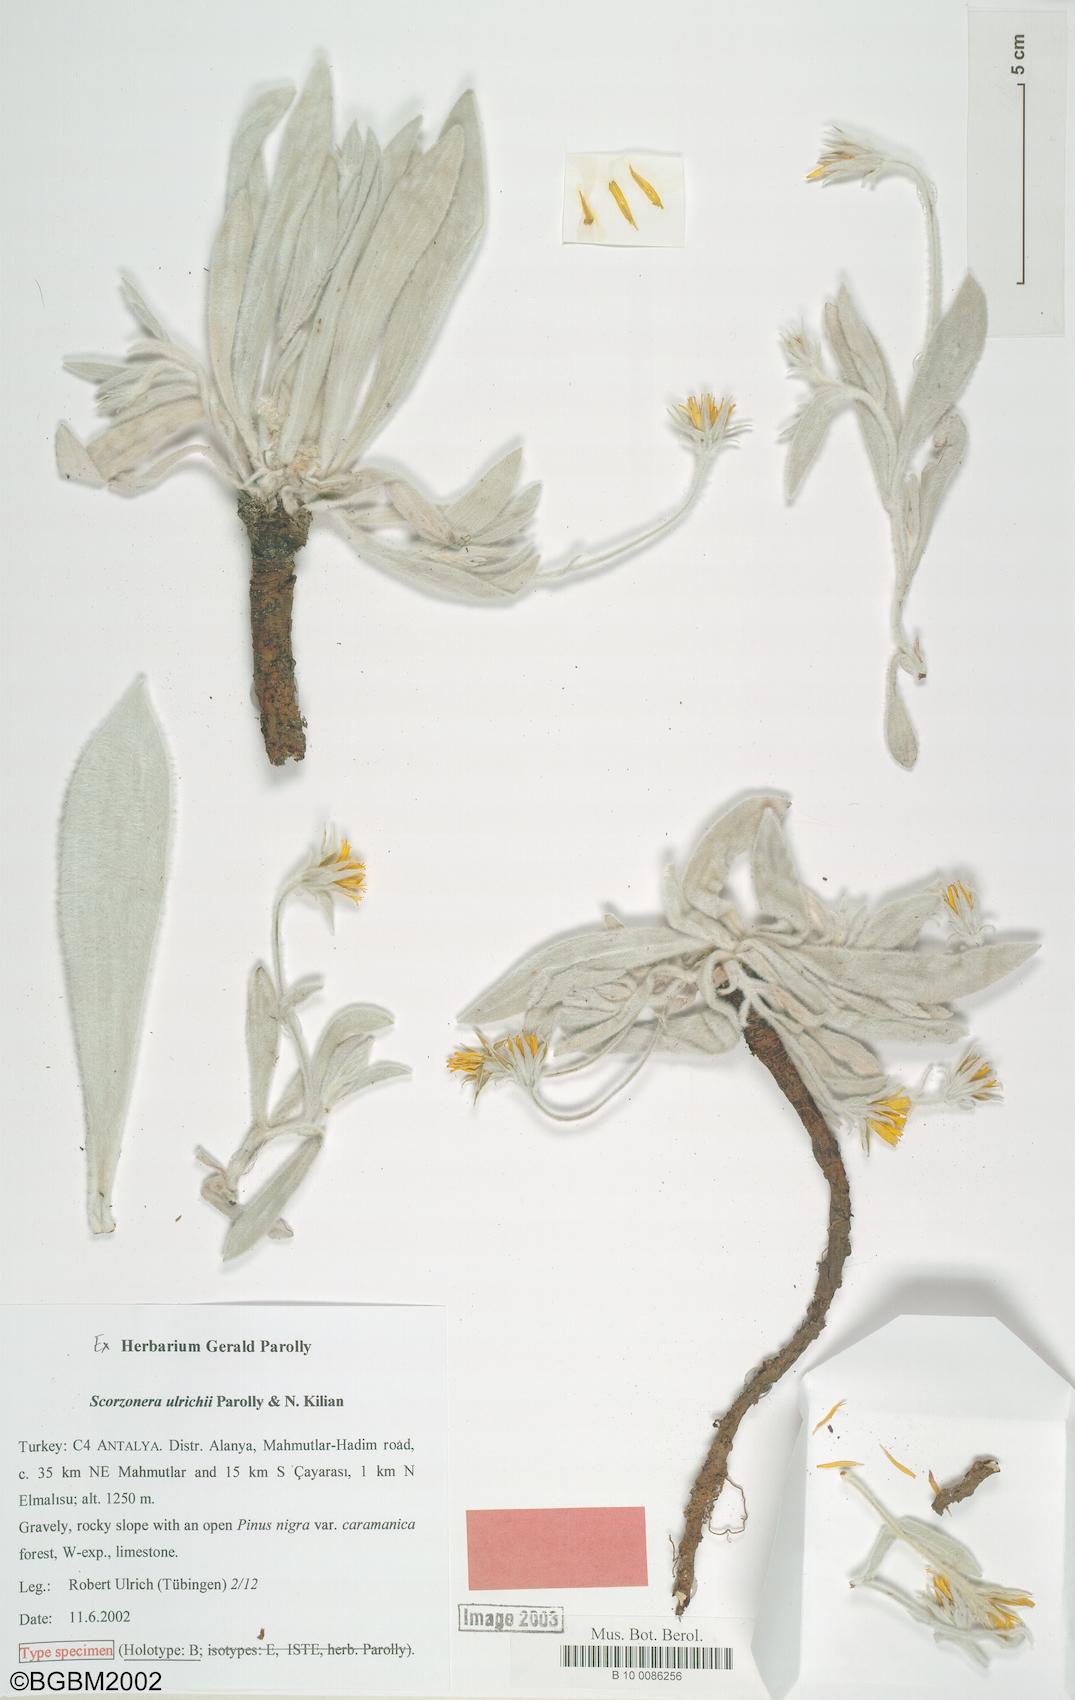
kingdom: Plantae
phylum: Tracheophyta
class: Magnoliopsida
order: Asterales
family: Asteraceae
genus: Bilgea
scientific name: Bilgea ulrichii
